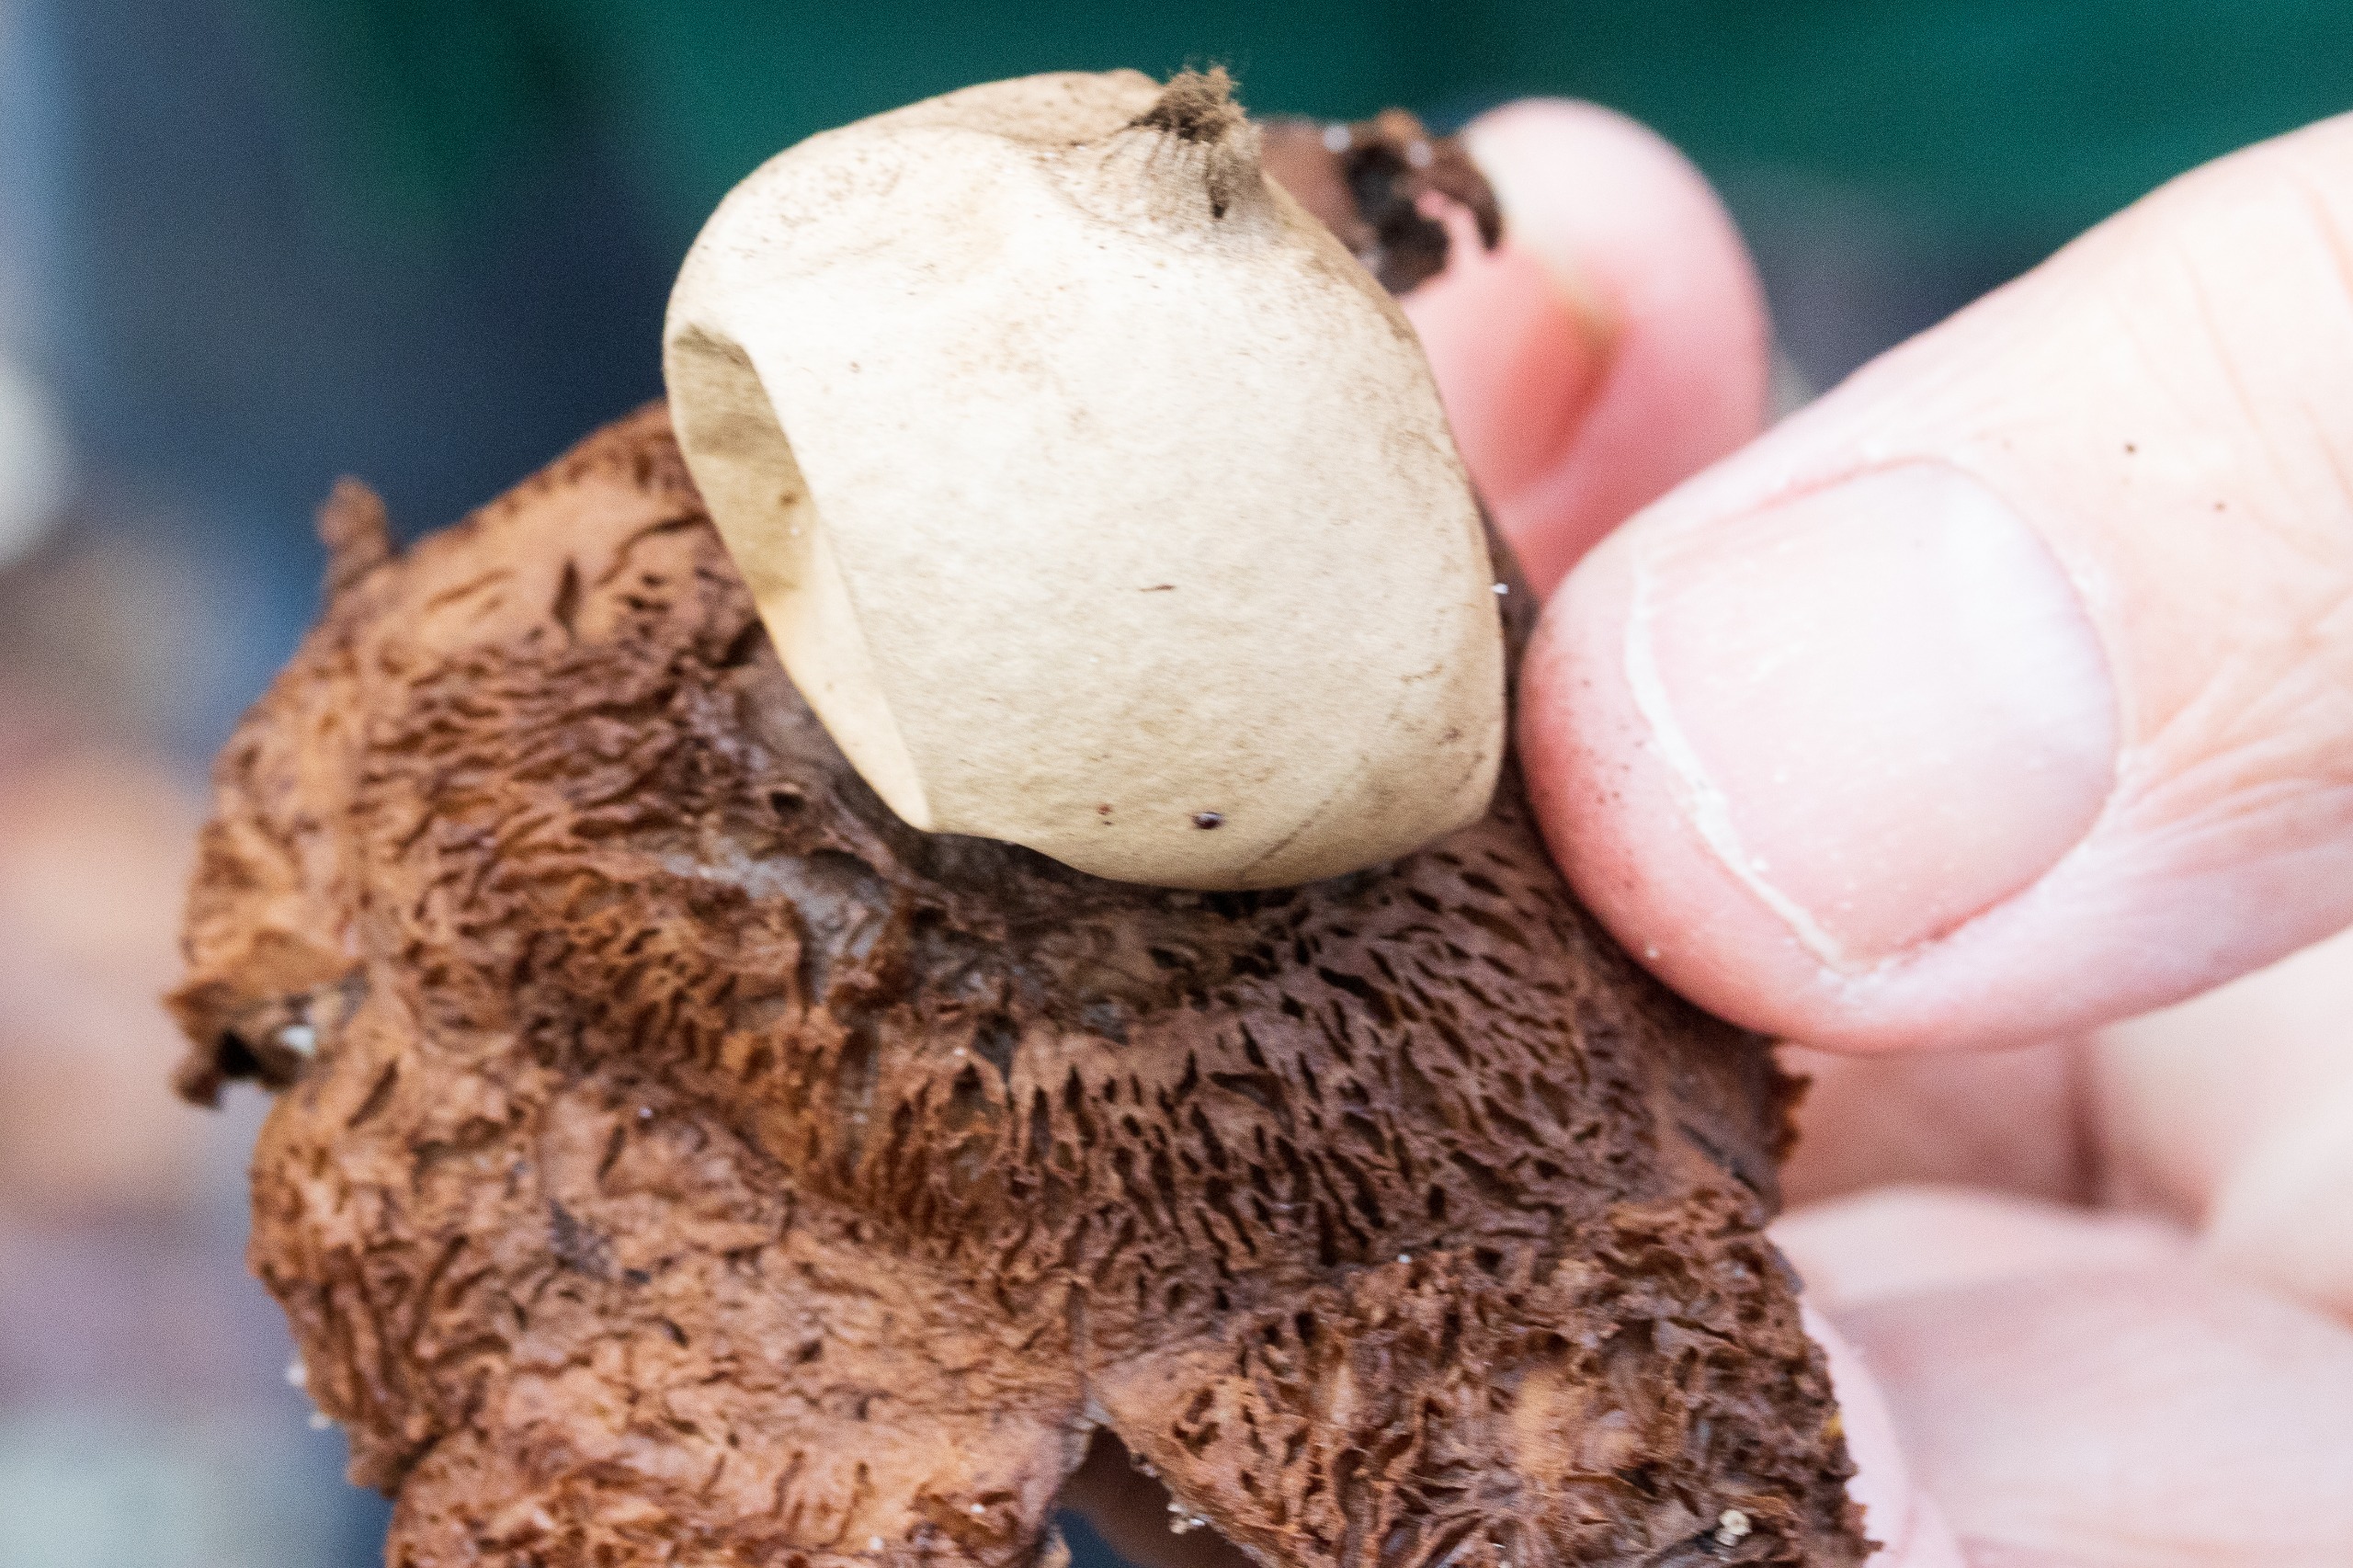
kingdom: Fungi
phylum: Basidiomycota
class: Agaricomycetes
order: Geastrales
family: Geastraceae
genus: Geastrum
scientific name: Geastrum michelianum
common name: Kødet stjernebold
